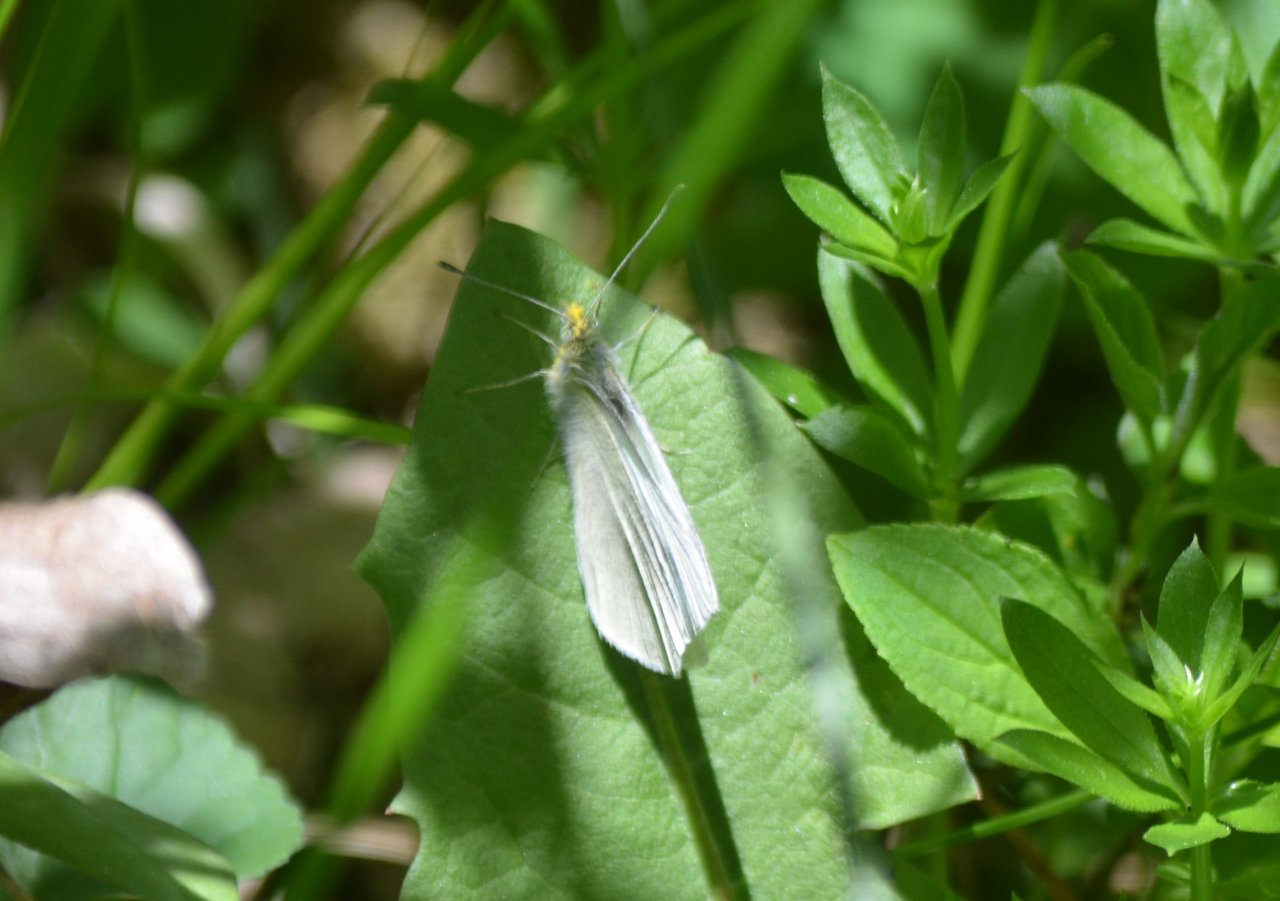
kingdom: Animalia
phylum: Arthropoda
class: Insecta
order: Lepidoptera
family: Pieridae
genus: Pieris
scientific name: Pieris
